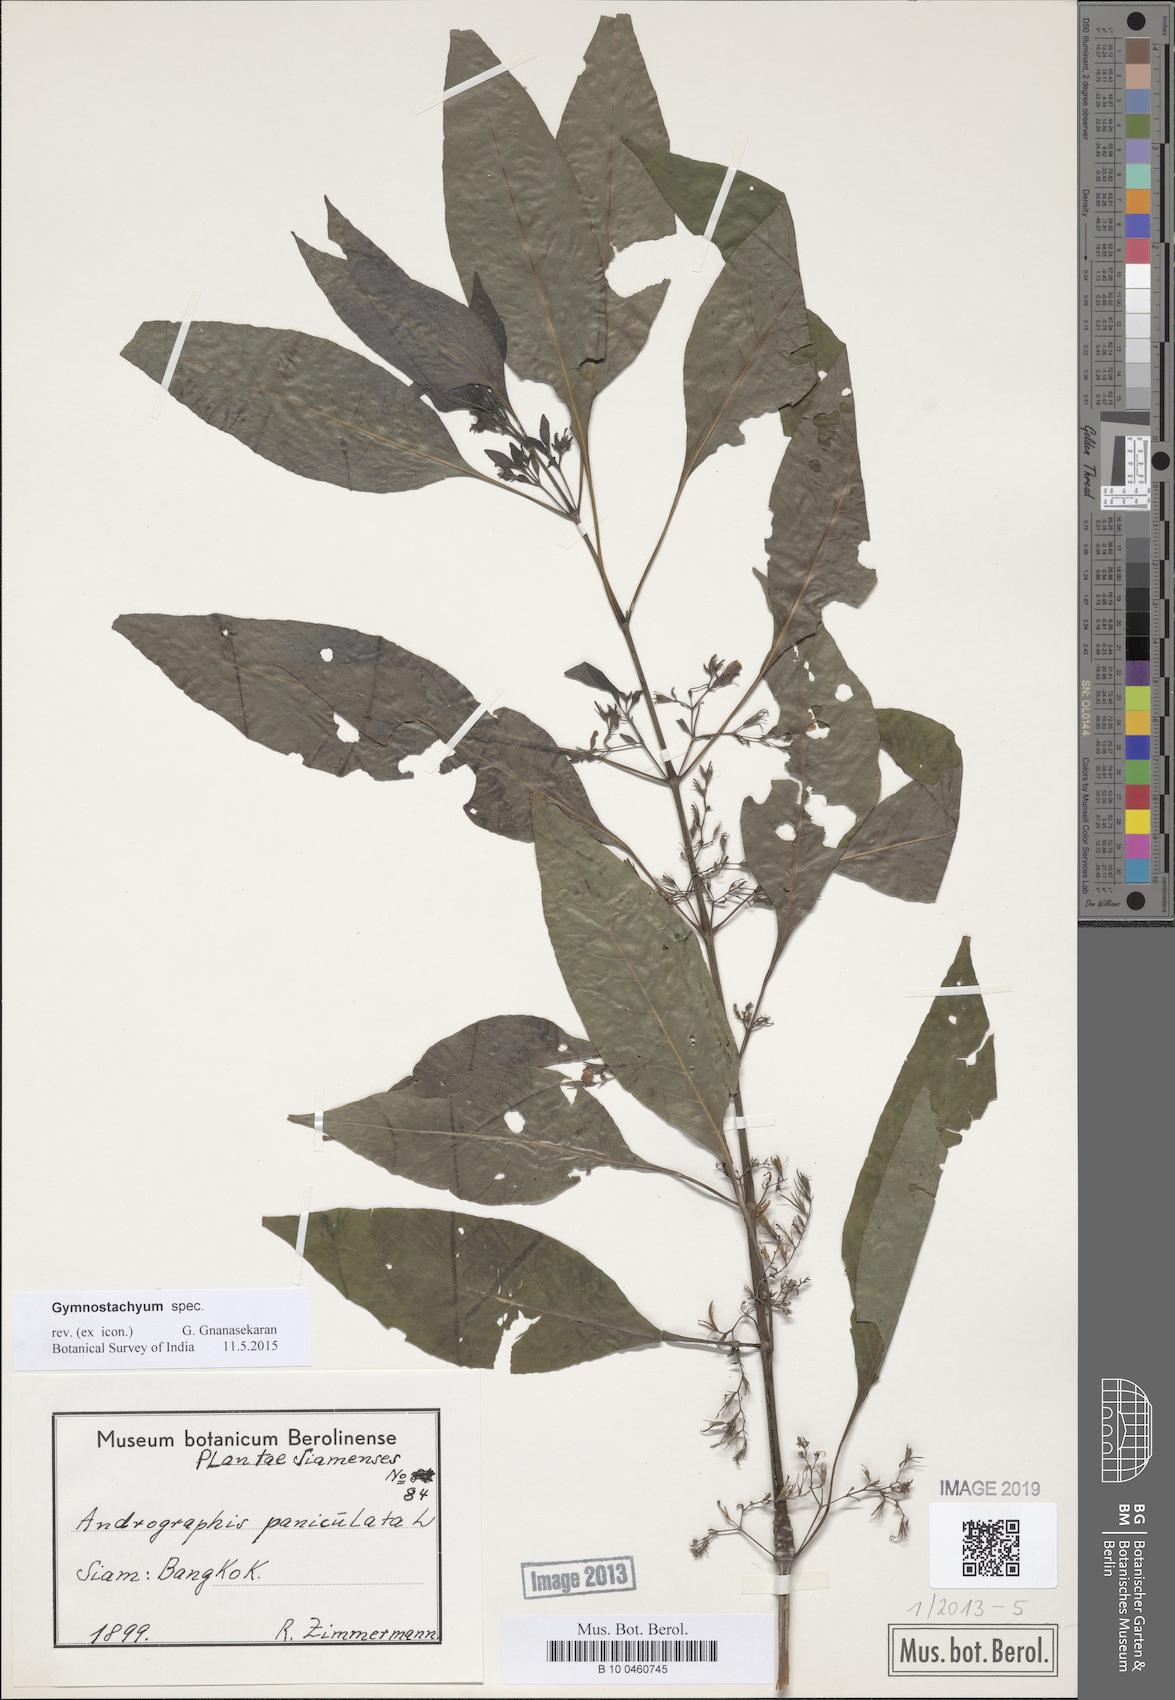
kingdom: Plantae
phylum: Tracheophyta
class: Magnoliopsida
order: Lamiales
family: Acanthaceae
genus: Gymnostachyum
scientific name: Gymnostachyum
